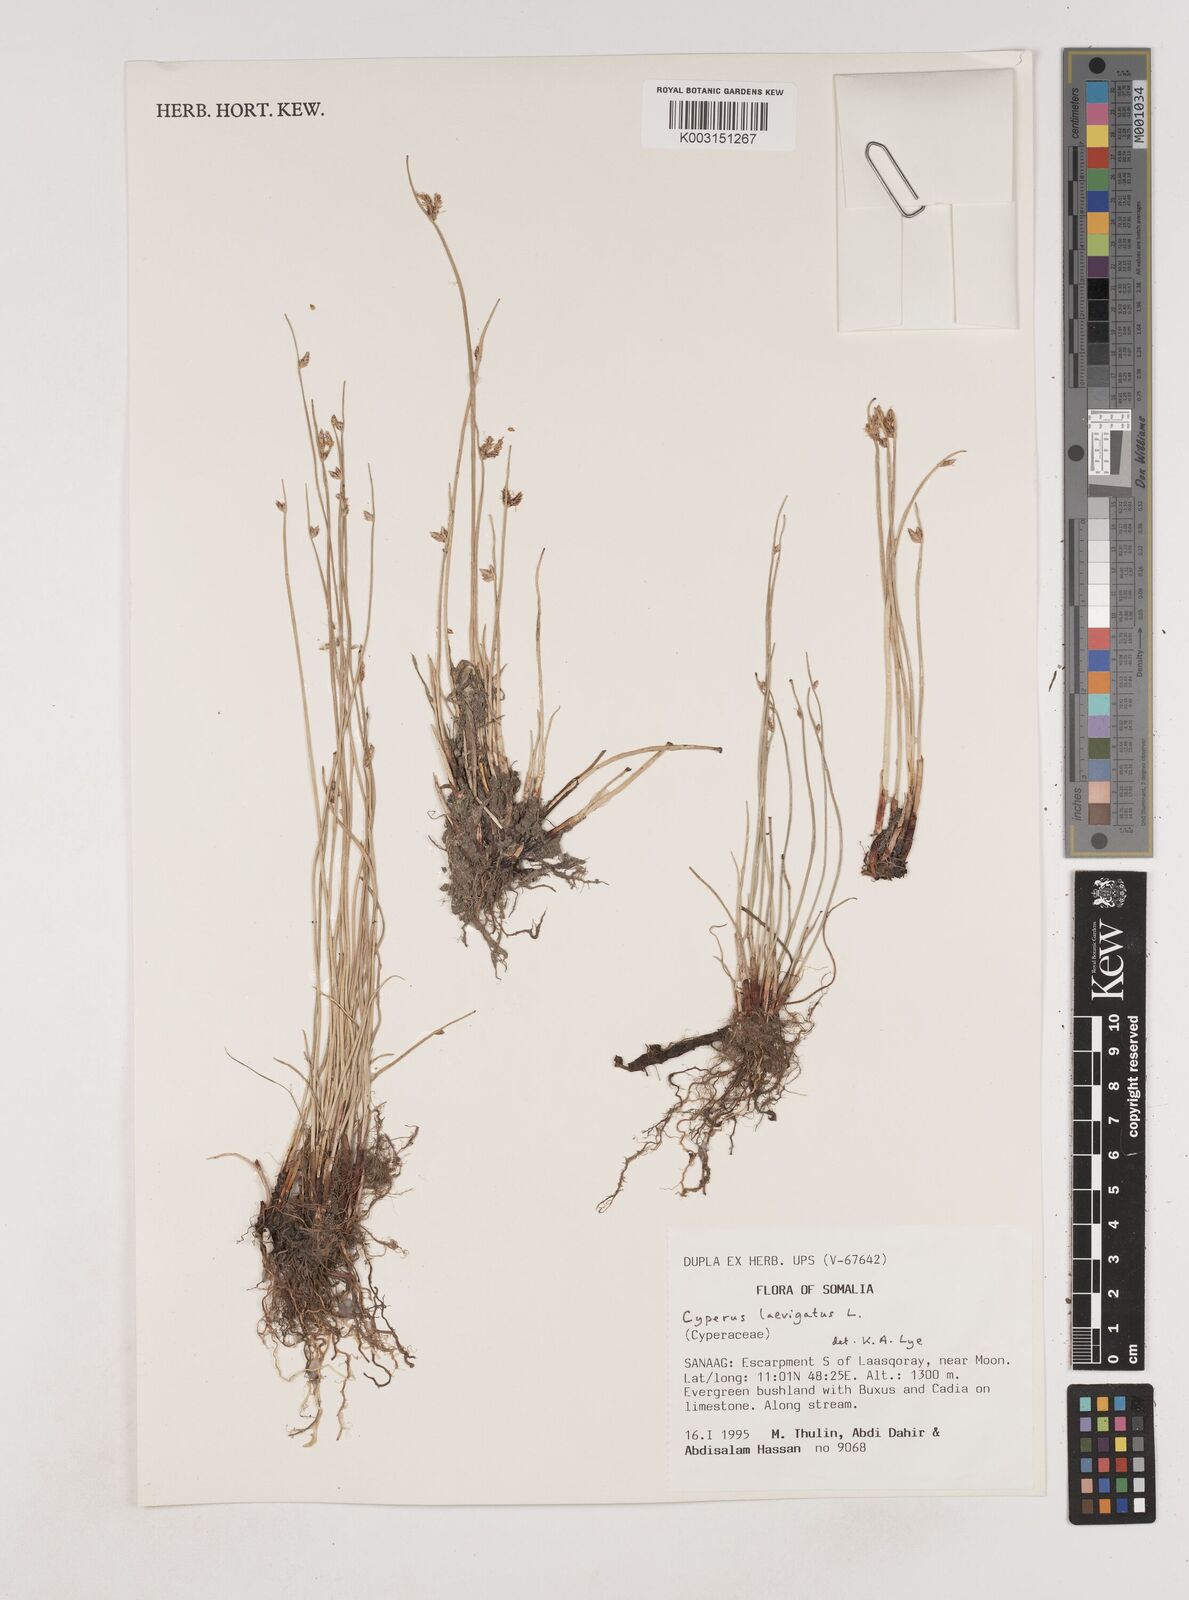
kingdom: Plantae
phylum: Tracheophyta
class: Liliopsida
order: Poales
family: Cyperaceae
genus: Cyperus
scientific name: Cyperus laevigatus
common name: Smooth flat sedge
